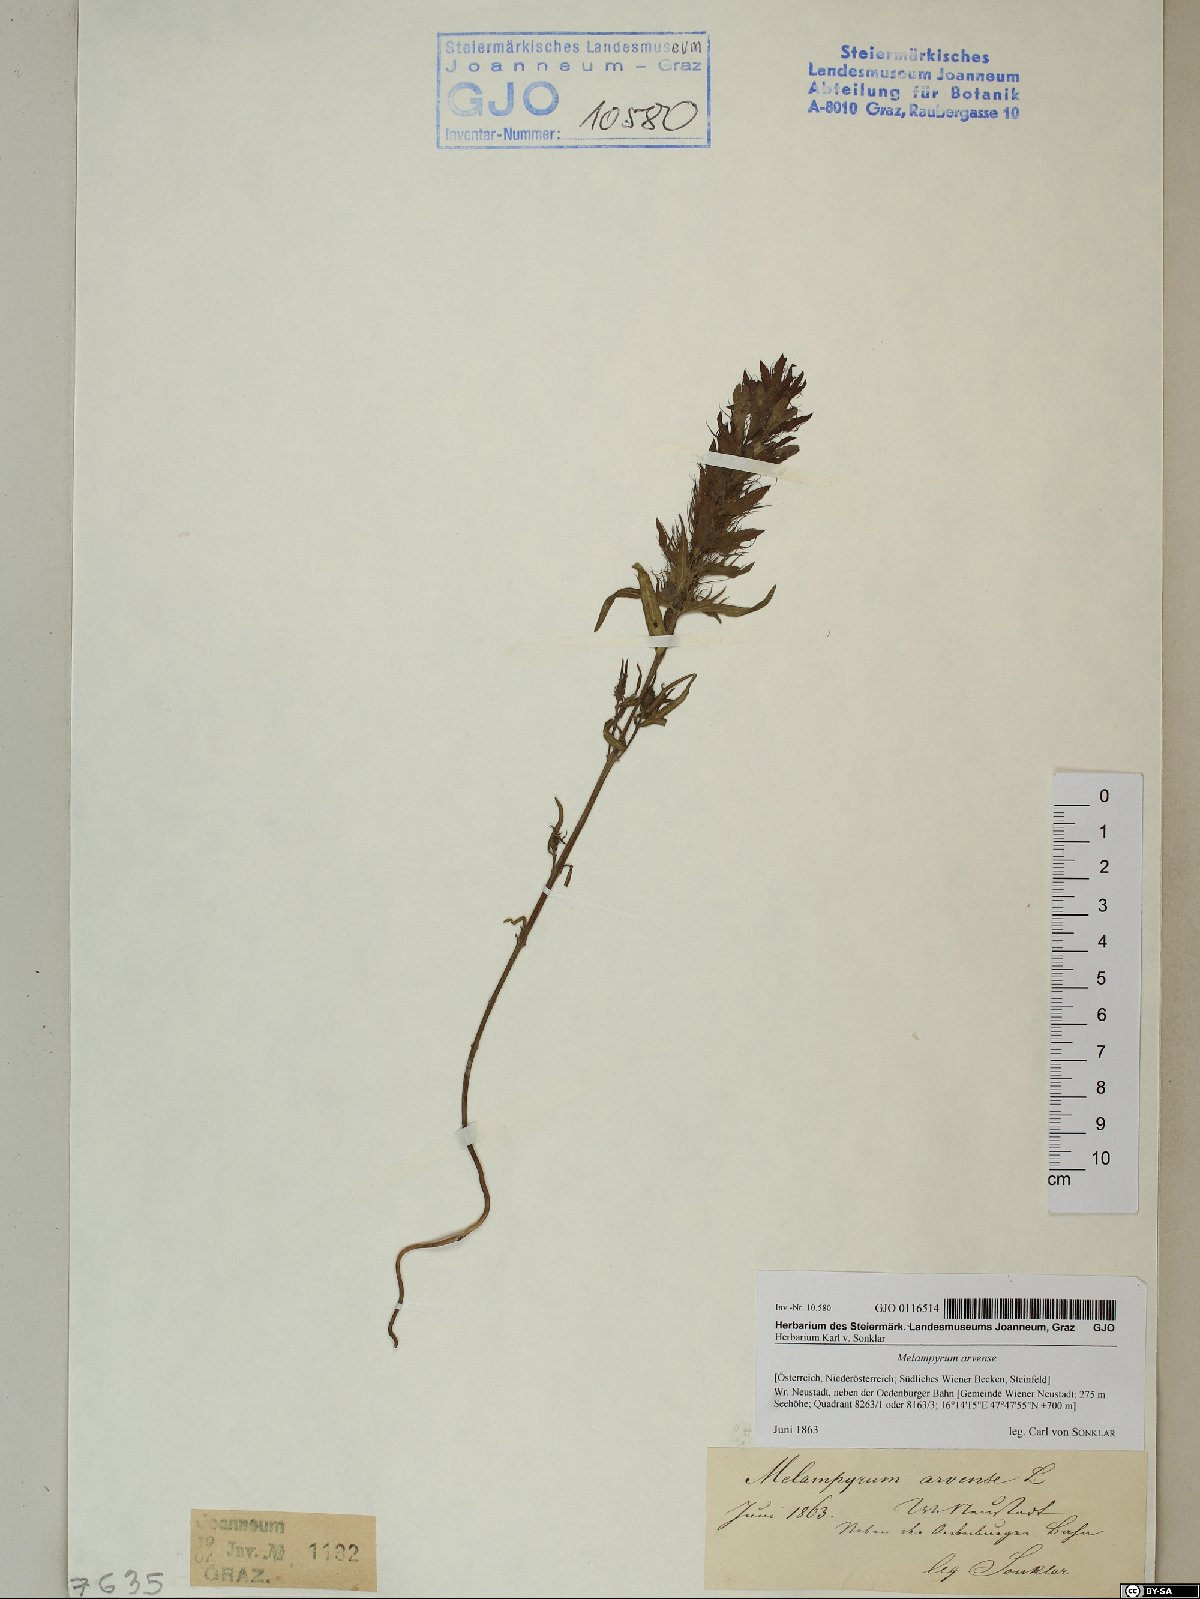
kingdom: Plantae
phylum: Tracheophyta
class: Magnoliopsida
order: Lamiales
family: Orobanchaceae
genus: Melampyrum
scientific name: Melampyrum arvense
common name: Field cow-wheat
